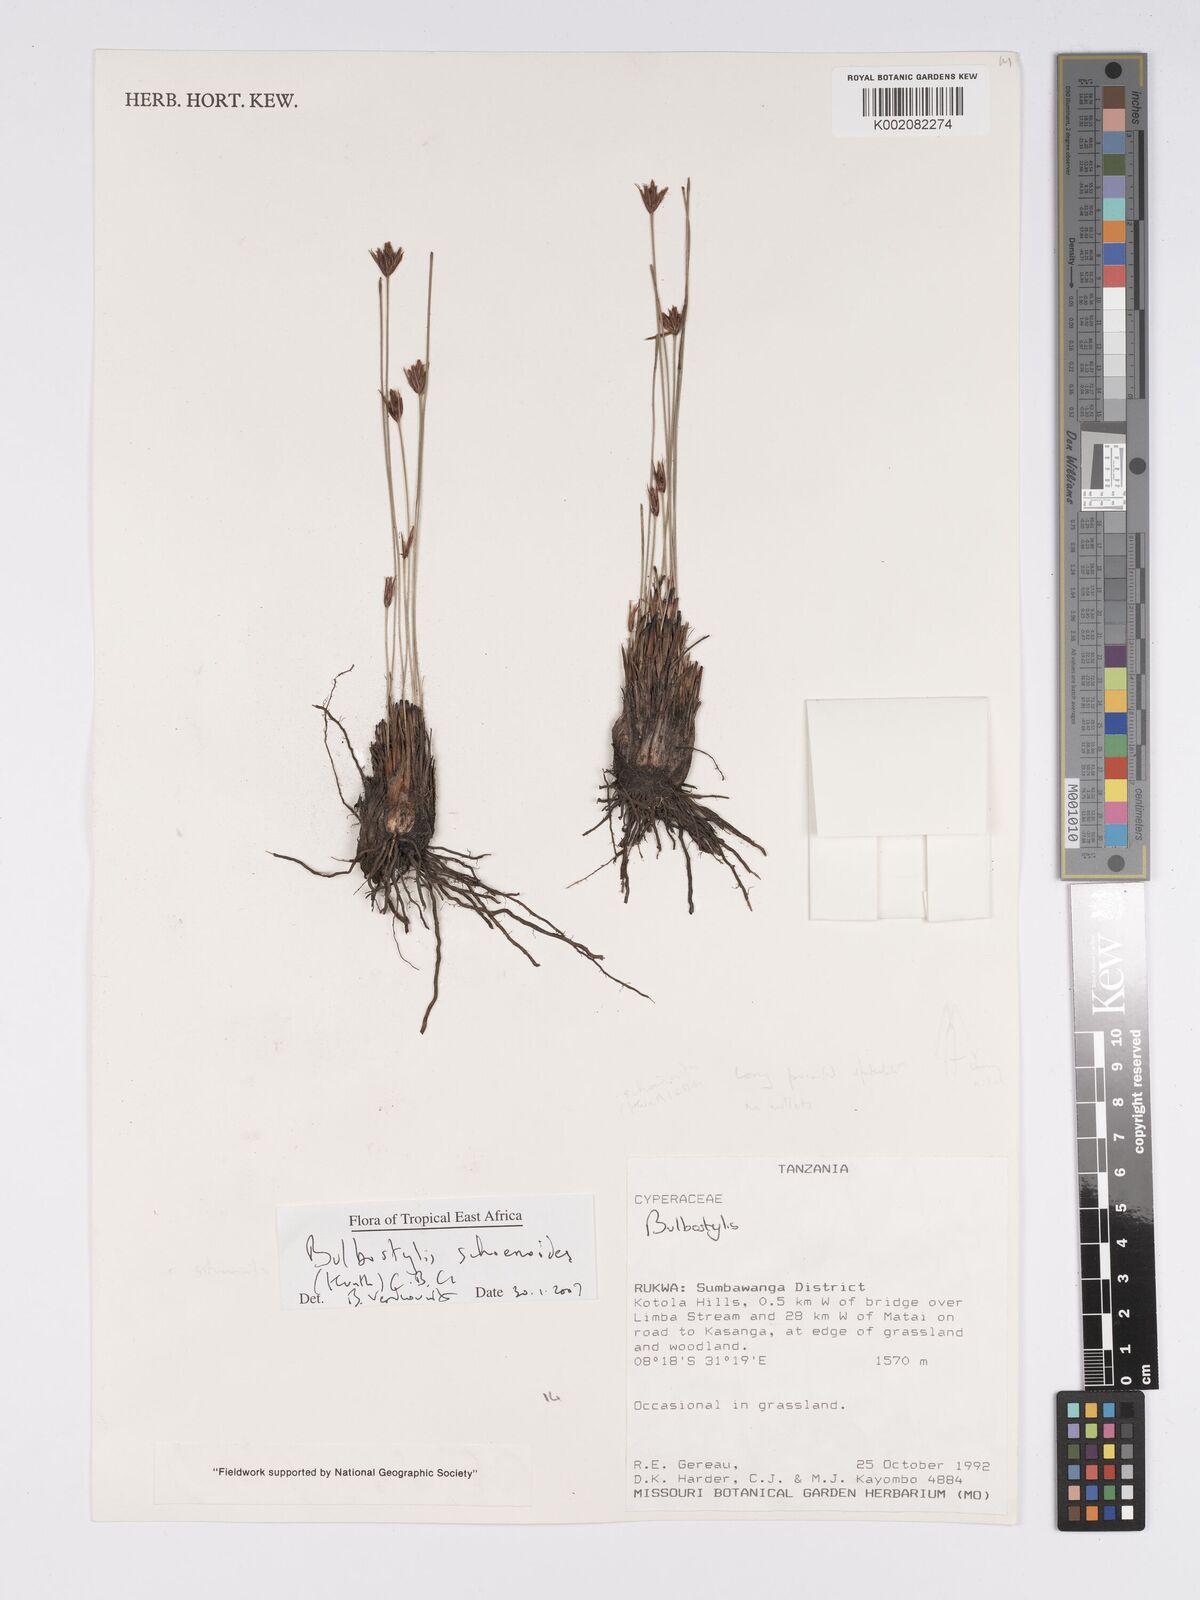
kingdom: Plantae
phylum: Tracheophyta
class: Liliopsida
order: Poales
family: Cyperaceae
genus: Bulbostylis
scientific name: Bulbostylis schoenoides
